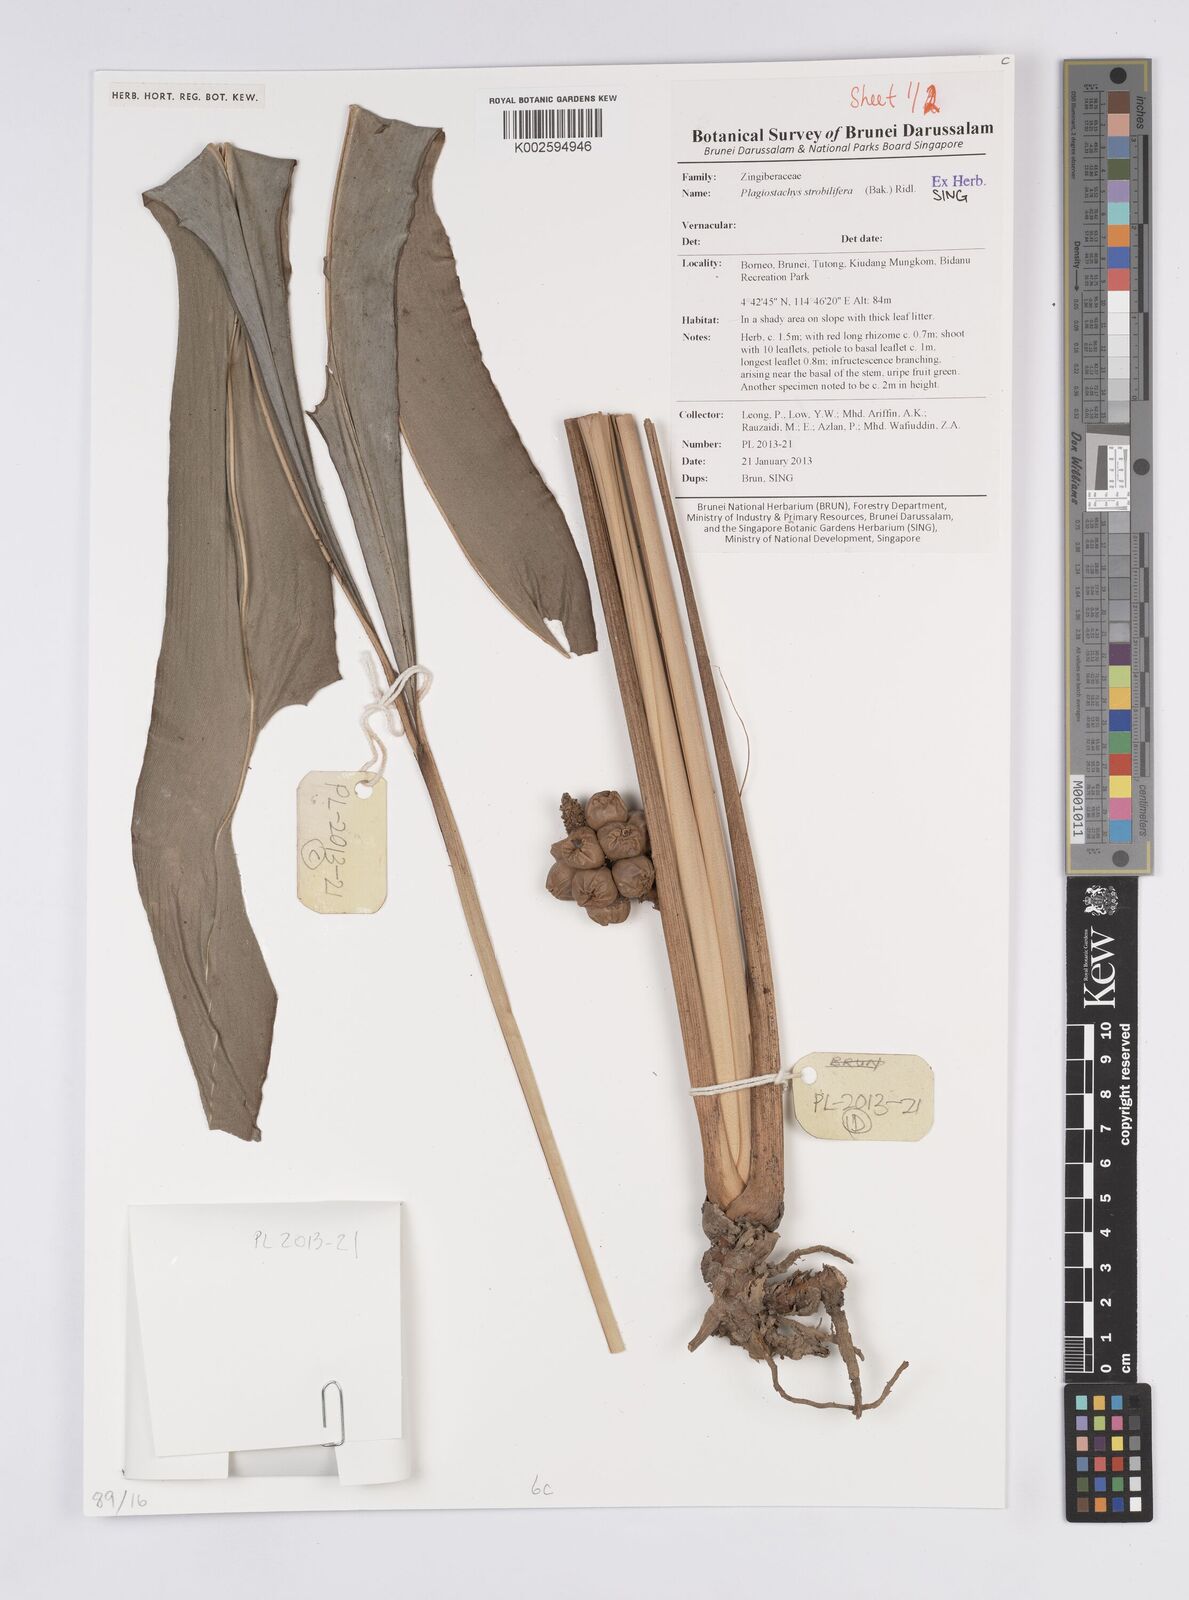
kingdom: Plantae
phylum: Tracheophyta
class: Liliopsida
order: Zingiberales
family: Zingiberaceae
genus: Plagiostachys
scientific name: Plagiostachys strobilifera
